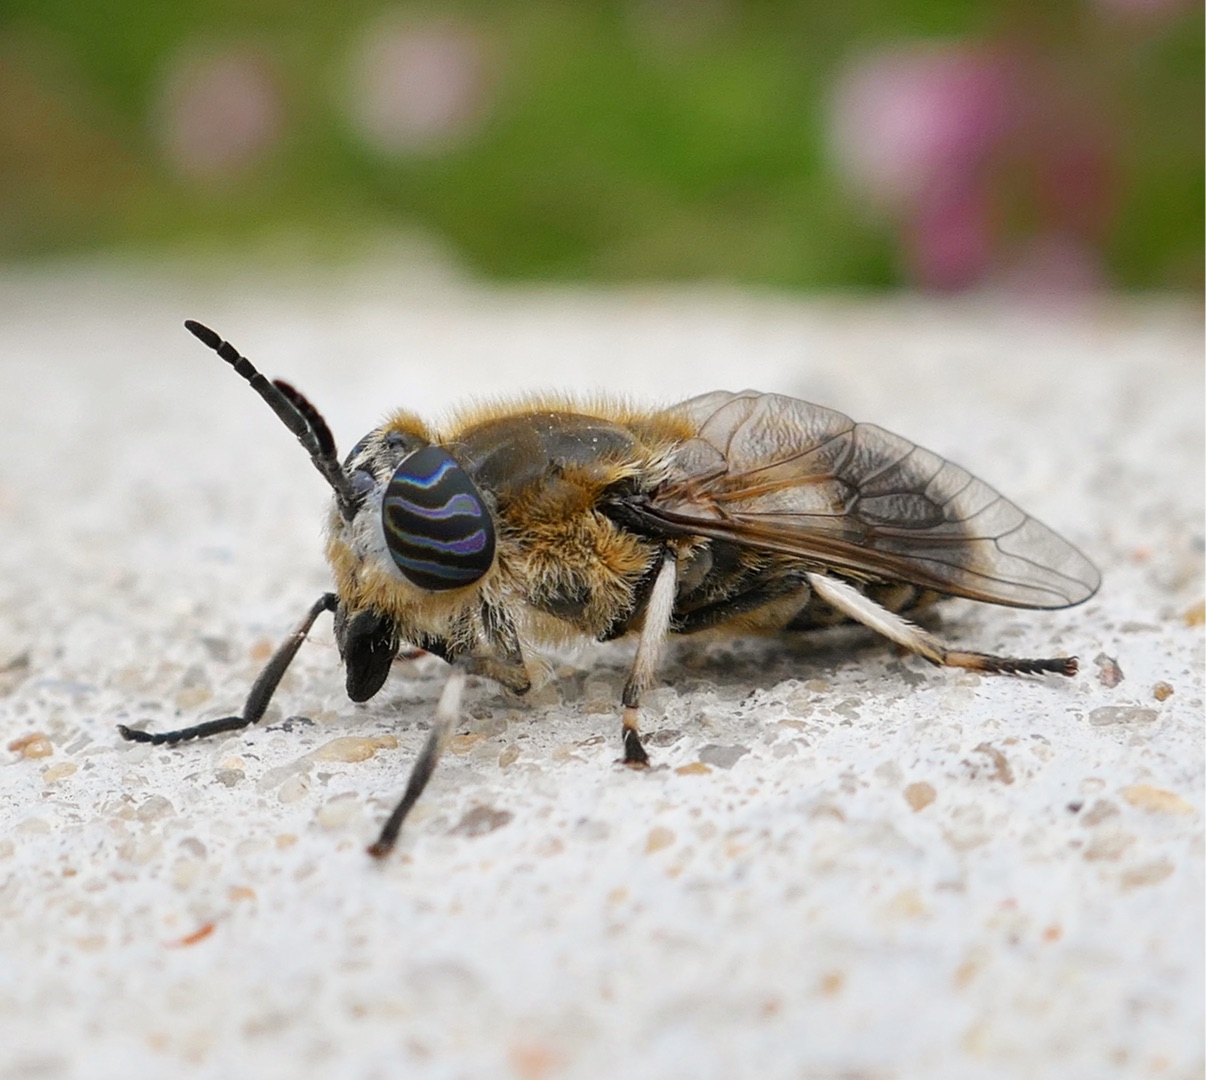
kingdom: Animalia
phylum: Arthropoda
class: Insecta
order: Diptera
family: Tabanidae
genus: Heptatoma
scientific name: Heptatoma pellucens
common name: Vandklæg
